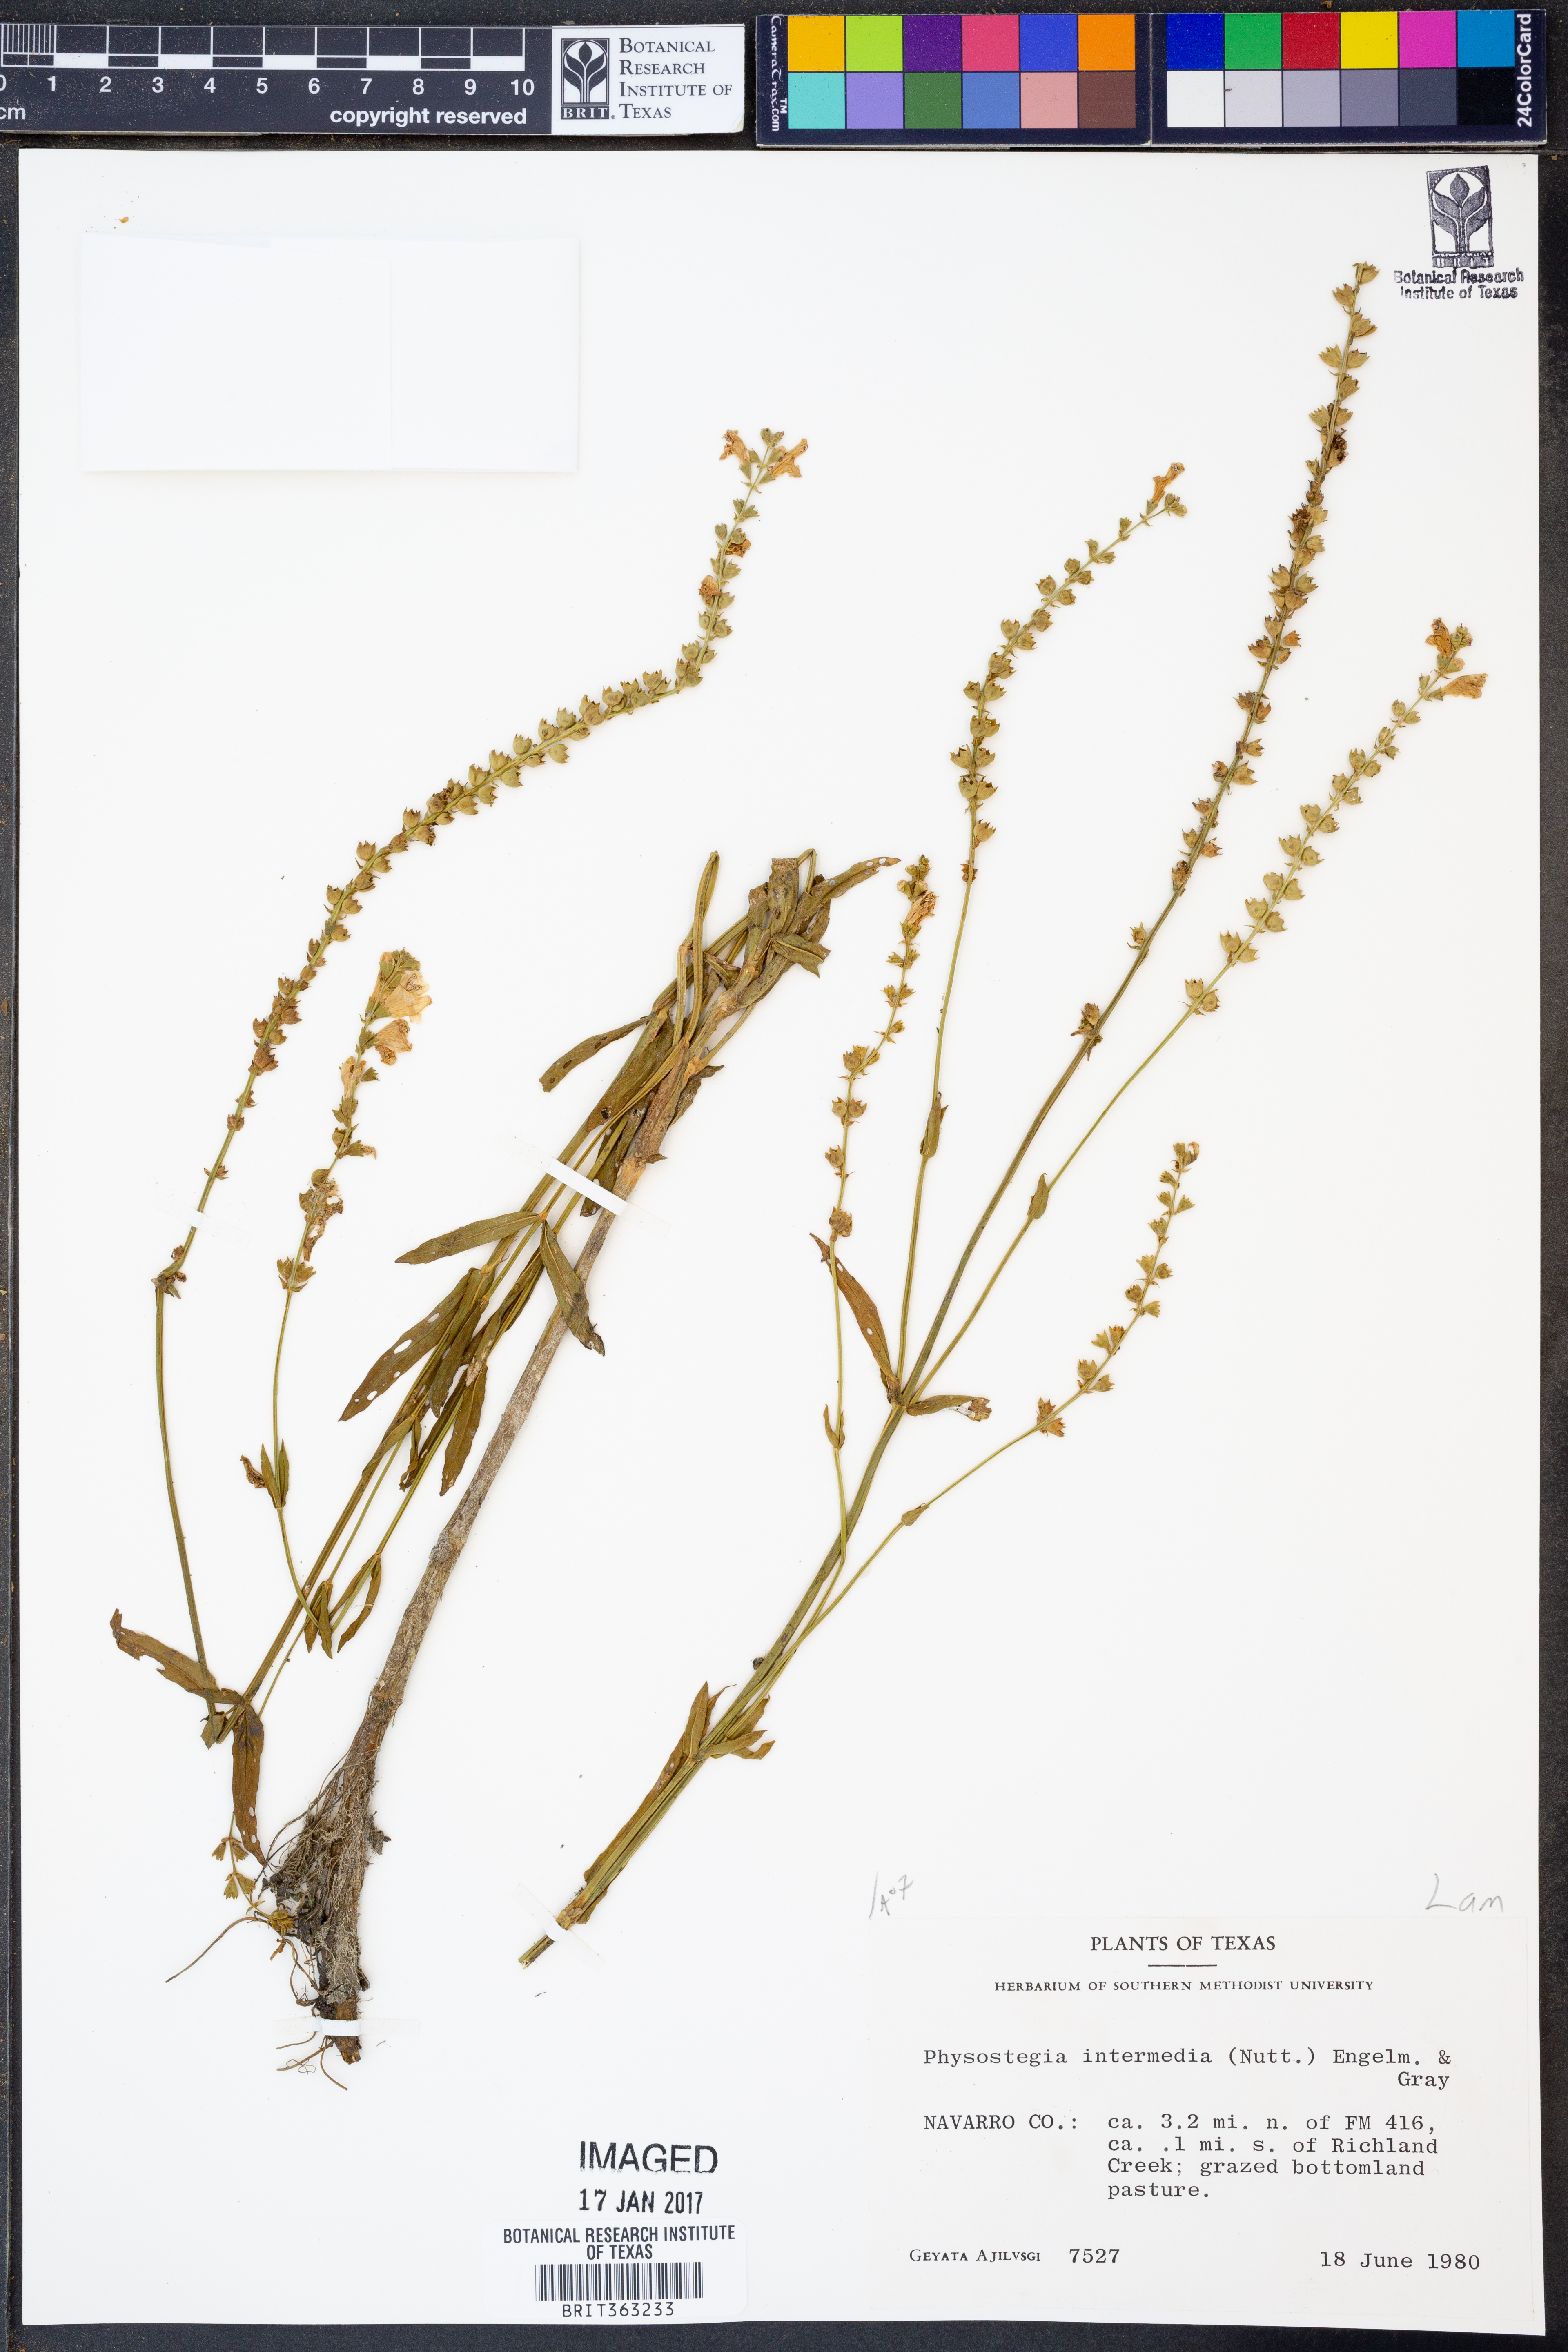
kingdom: Plantae
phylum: Tracheophyta
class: Magnoliopsida
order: Lamiales
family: Lamiaceae
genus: Physostegia
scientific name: Physostegia intermedia
